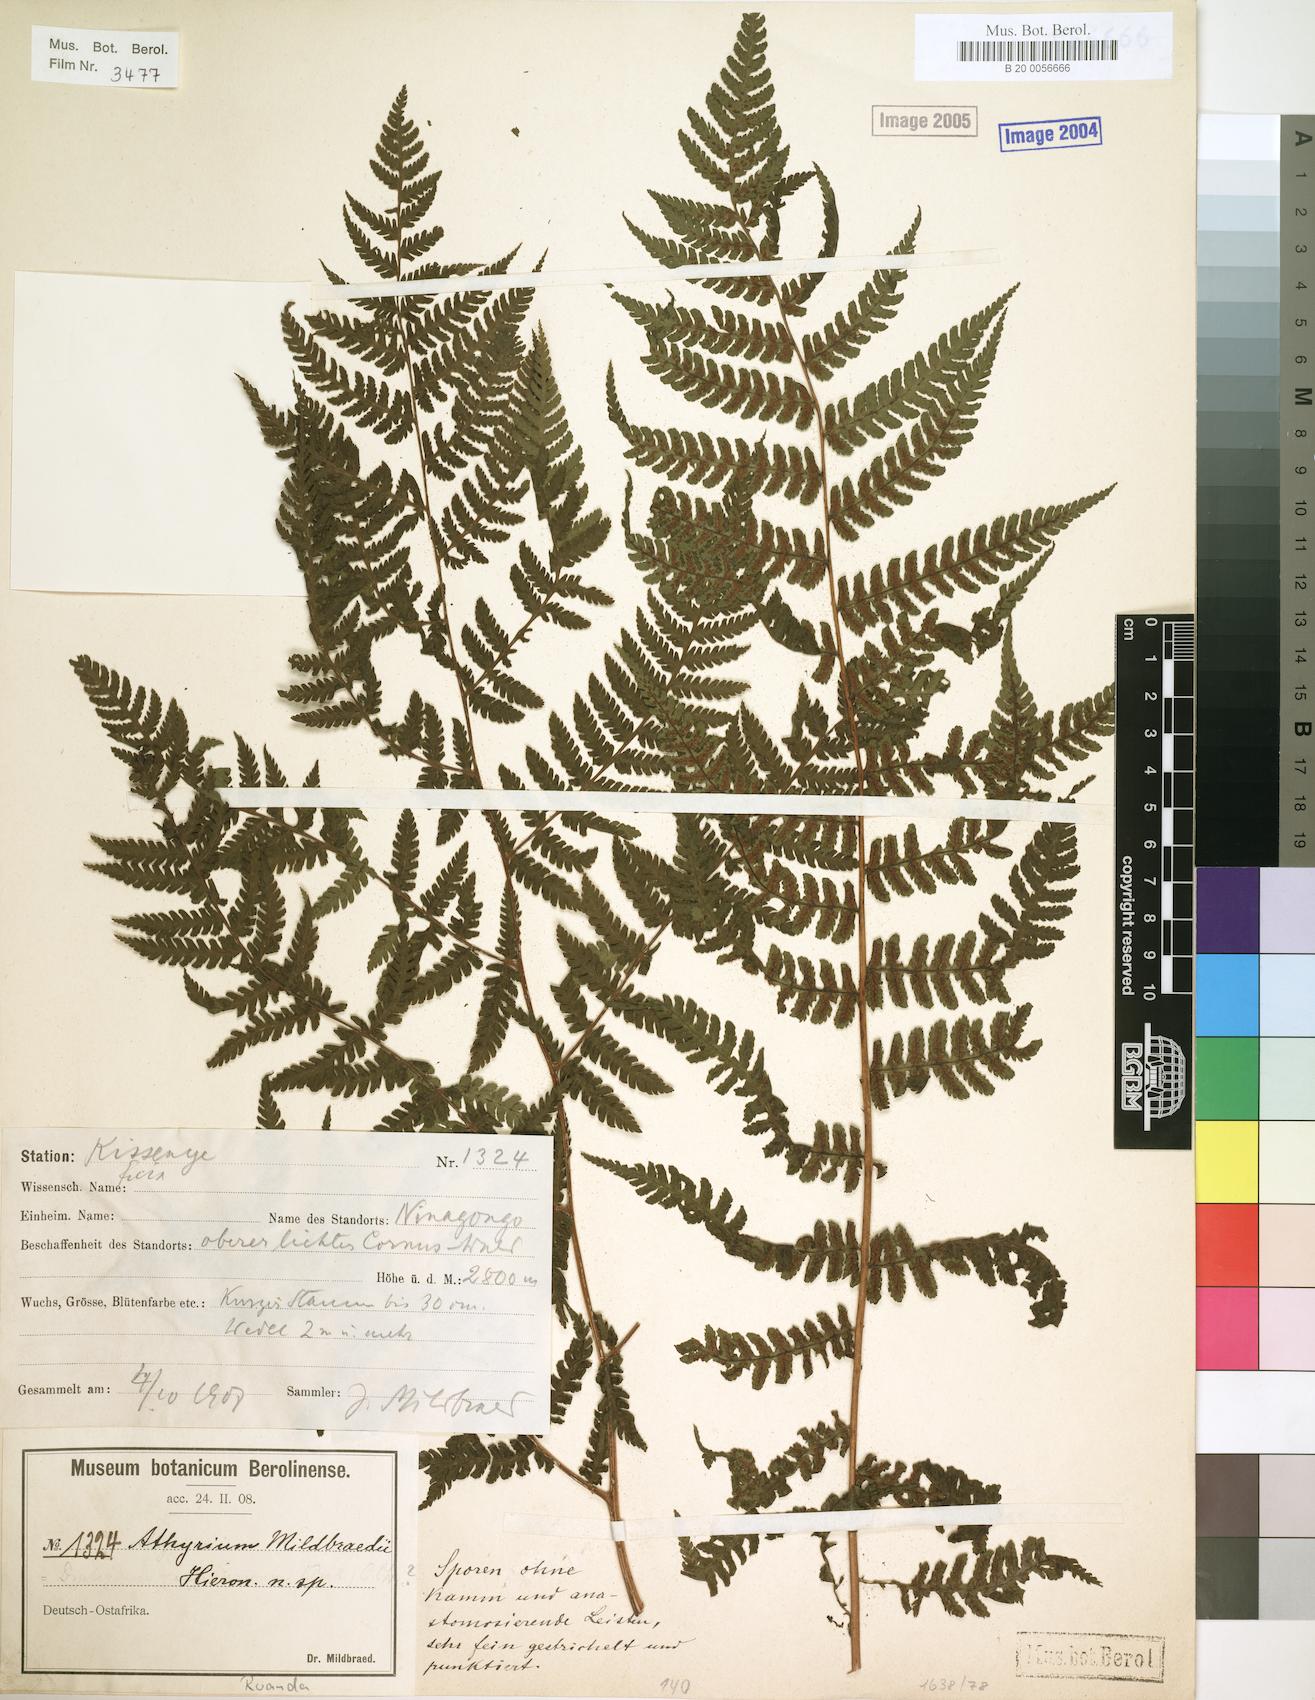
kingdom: Plantae
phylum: Tracheophyta
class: Polypodiopsida
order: Polypodiales
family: Athyriaceae
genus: Athyrium
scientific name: Athyrium
